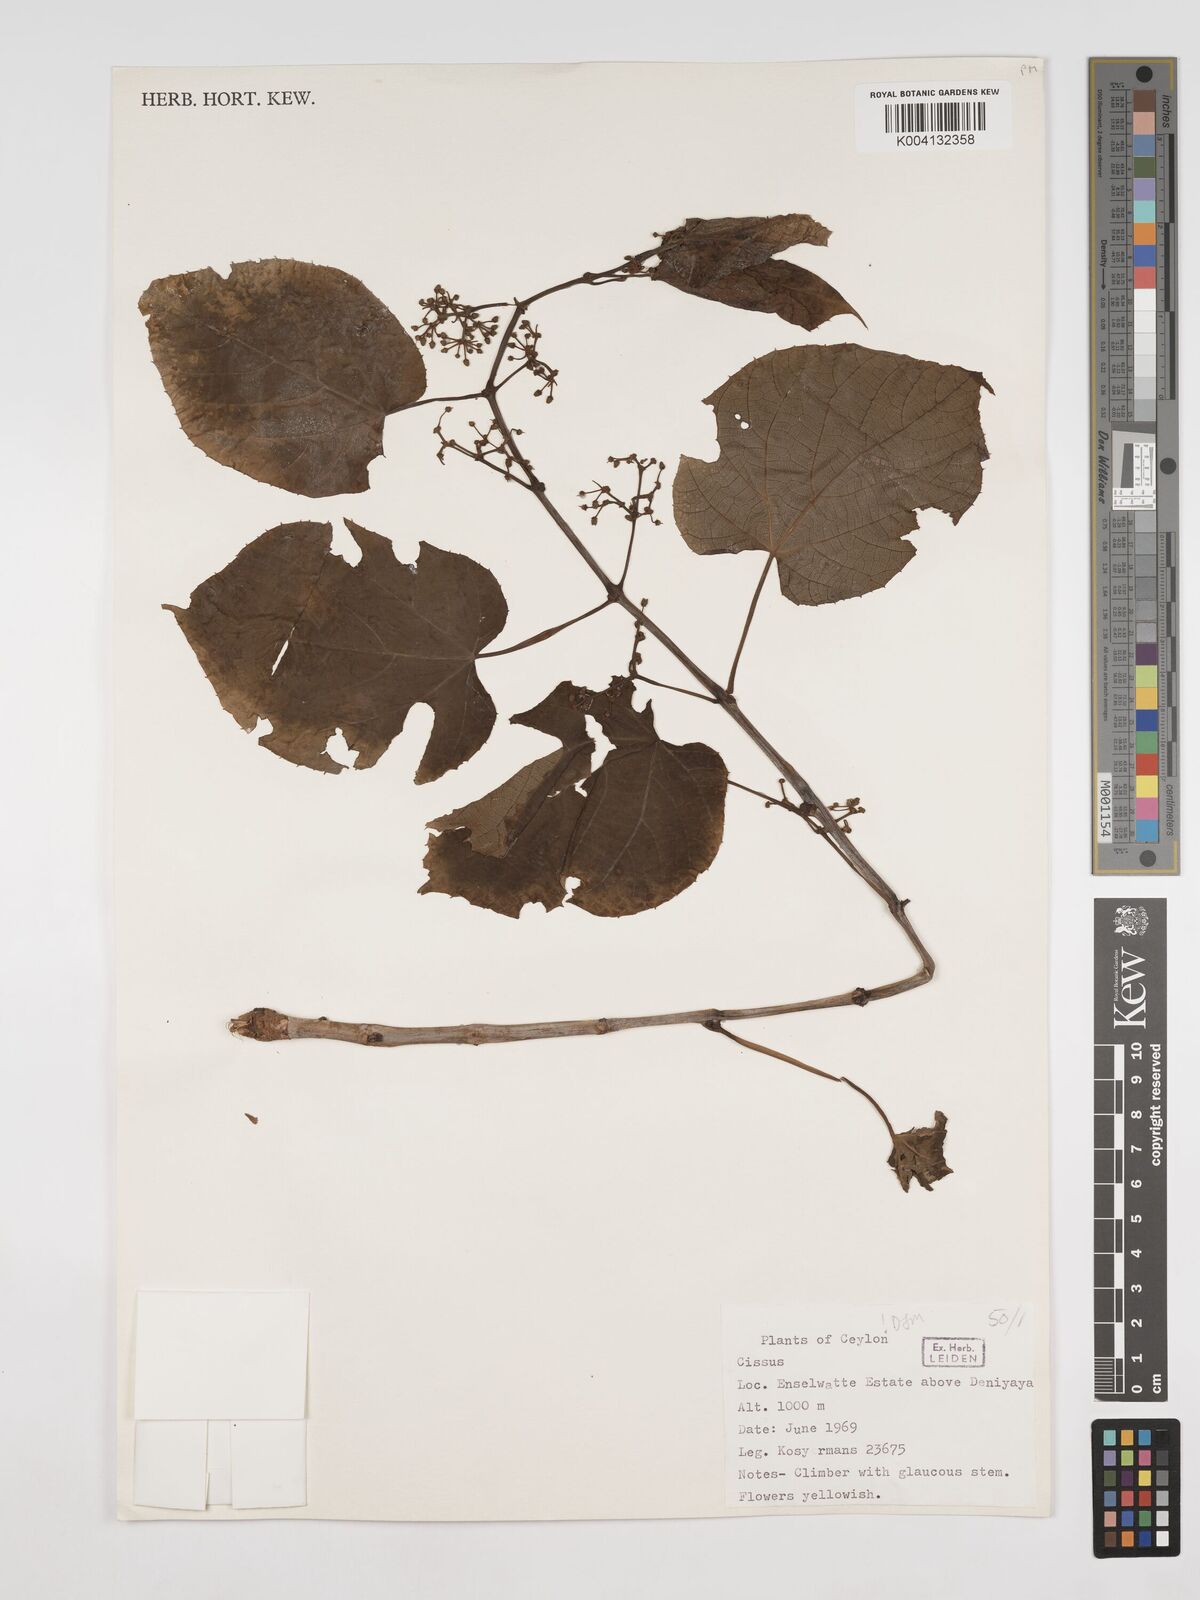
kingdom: Plantae
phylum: Tracheophyta
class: Magnoliopsida
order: Vitales
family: Vitaceae
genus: Cissus
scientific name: Cissus adnata
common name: Heart-leaf-grape
